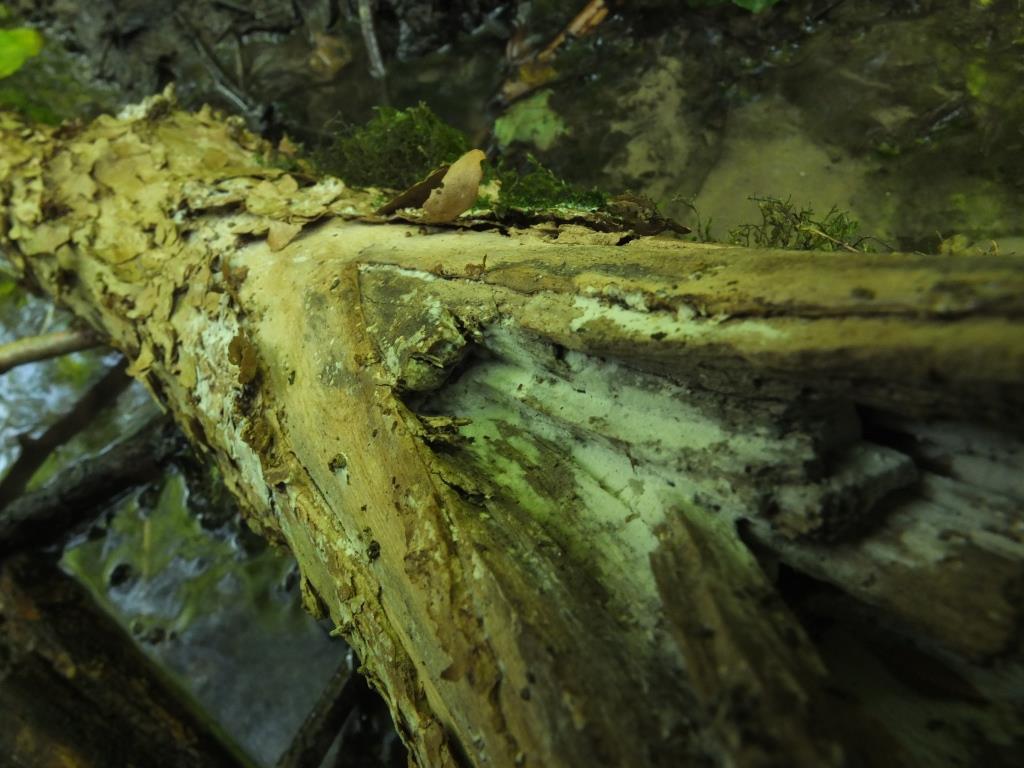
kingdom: Fungi
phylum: Basidiomycota
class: Agaricomycetes
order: Corticiales
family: Corticiaceae
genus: Lyomyces
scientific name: Lyomyces sambuci
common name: almindelig hyldehinde
